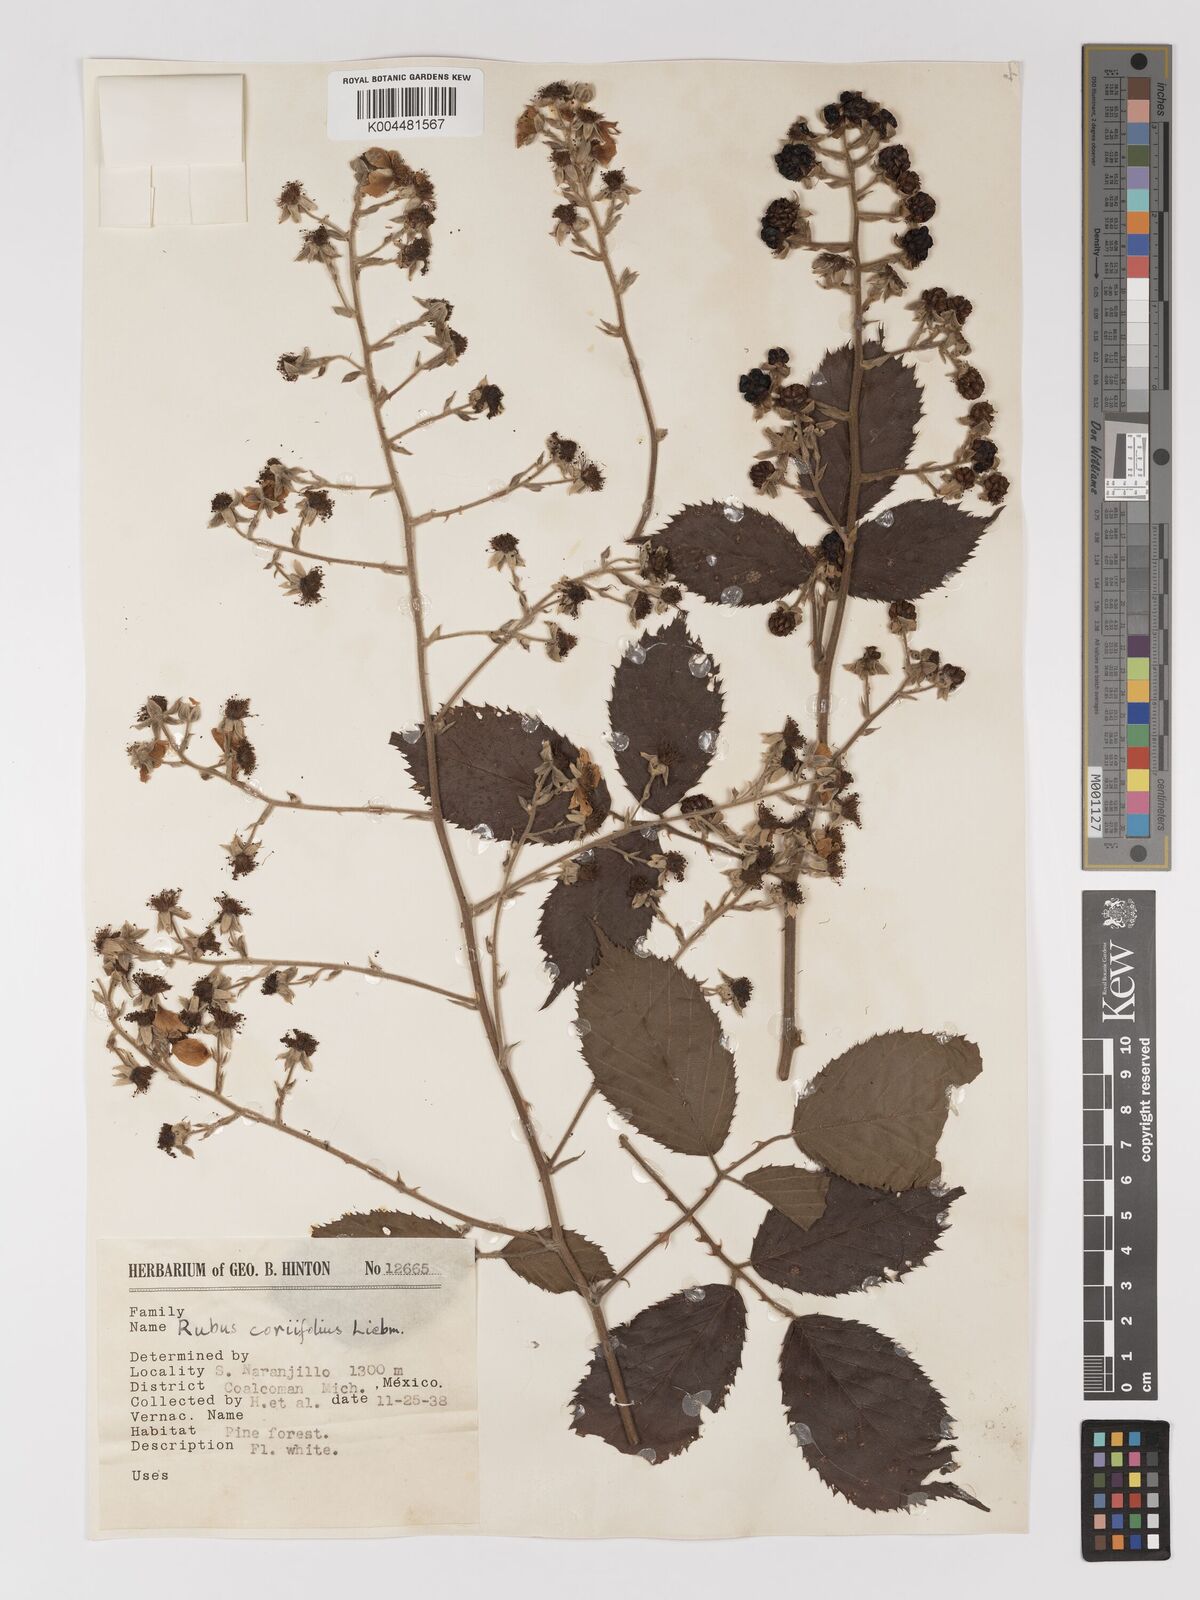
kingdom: Plantae
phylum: Tracheophyta
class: Magnoliopsida
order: Rosales
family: Rosaceae
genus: Rubus
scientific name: Rubus coriifolius
